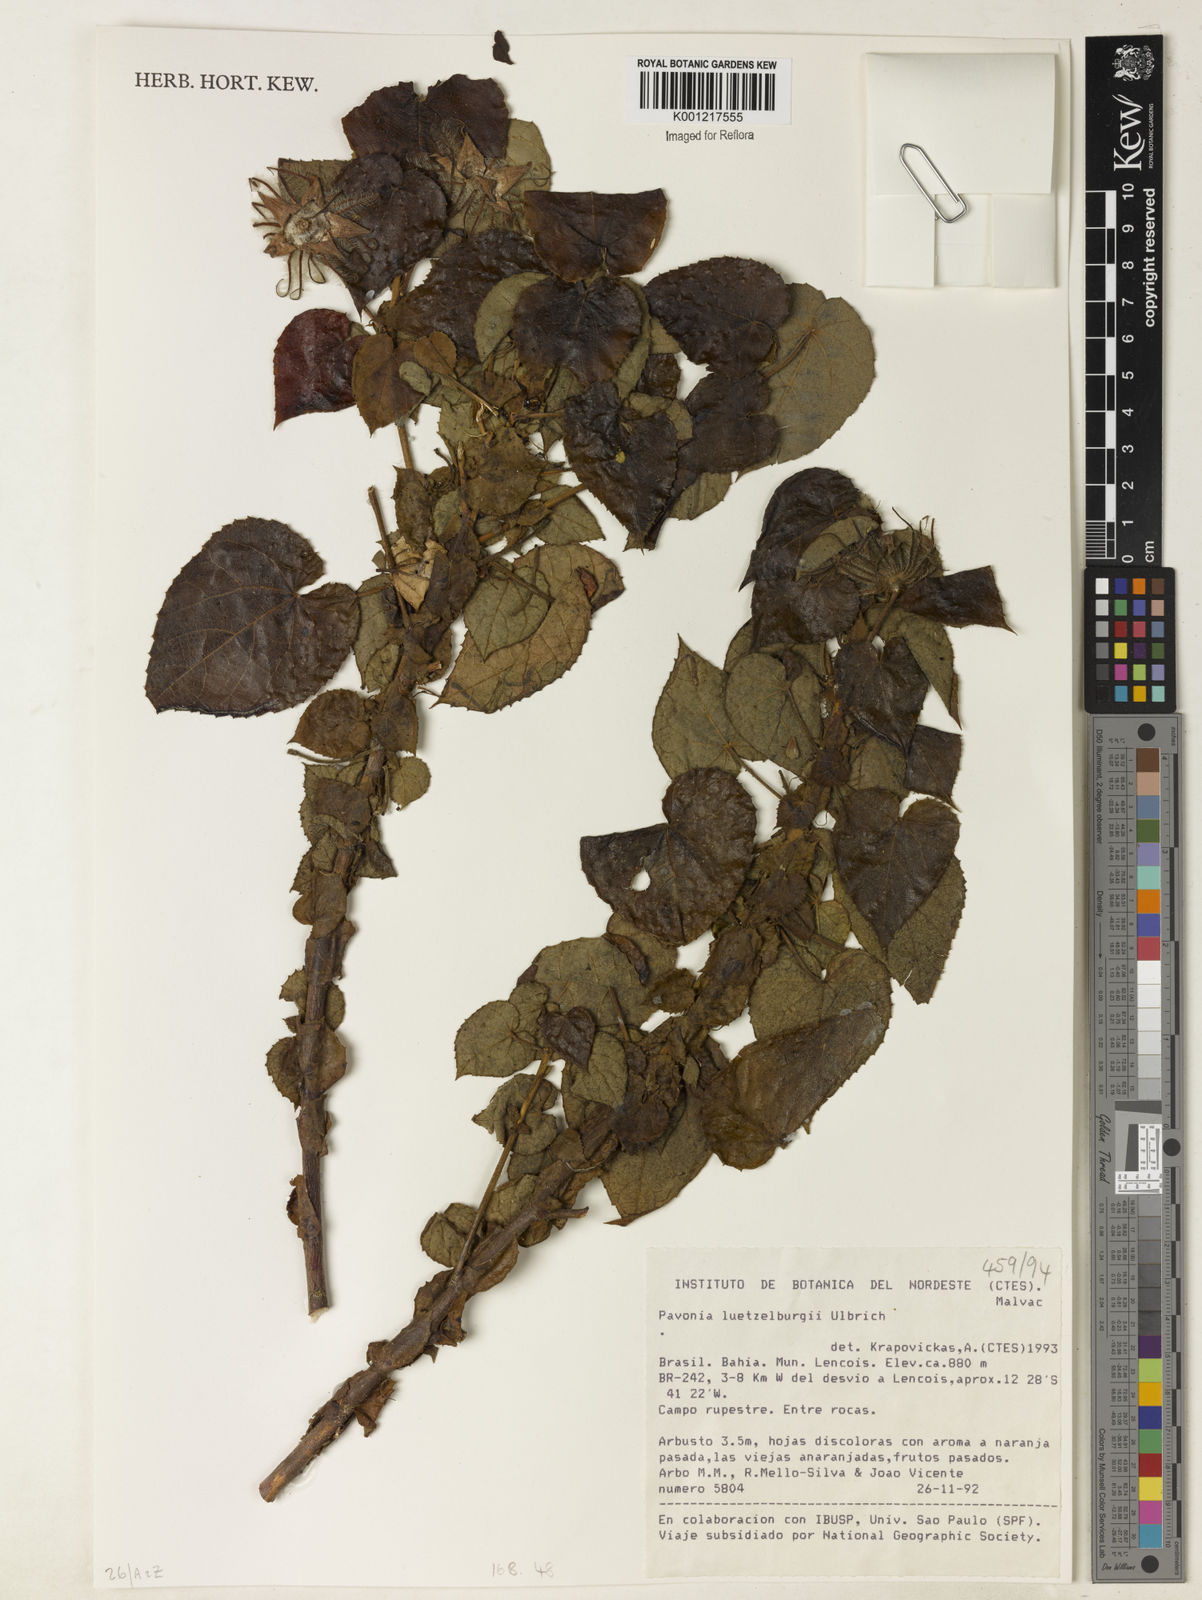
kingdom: Plantae
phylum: Tracheophyta
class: Magnoliopsida
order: Malvales
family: Malvaceae
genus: Pavonia
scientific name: Pavonia luetzelburgii
